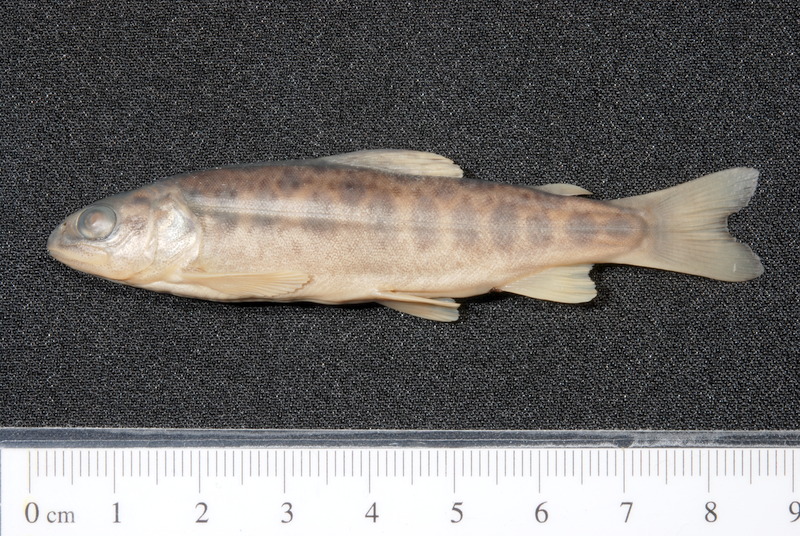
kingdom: Animalia
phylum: Chordata
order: Salmoniformes
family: Salmonidae
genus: Salmo
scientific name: Salmo trutta
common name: Brown trout
